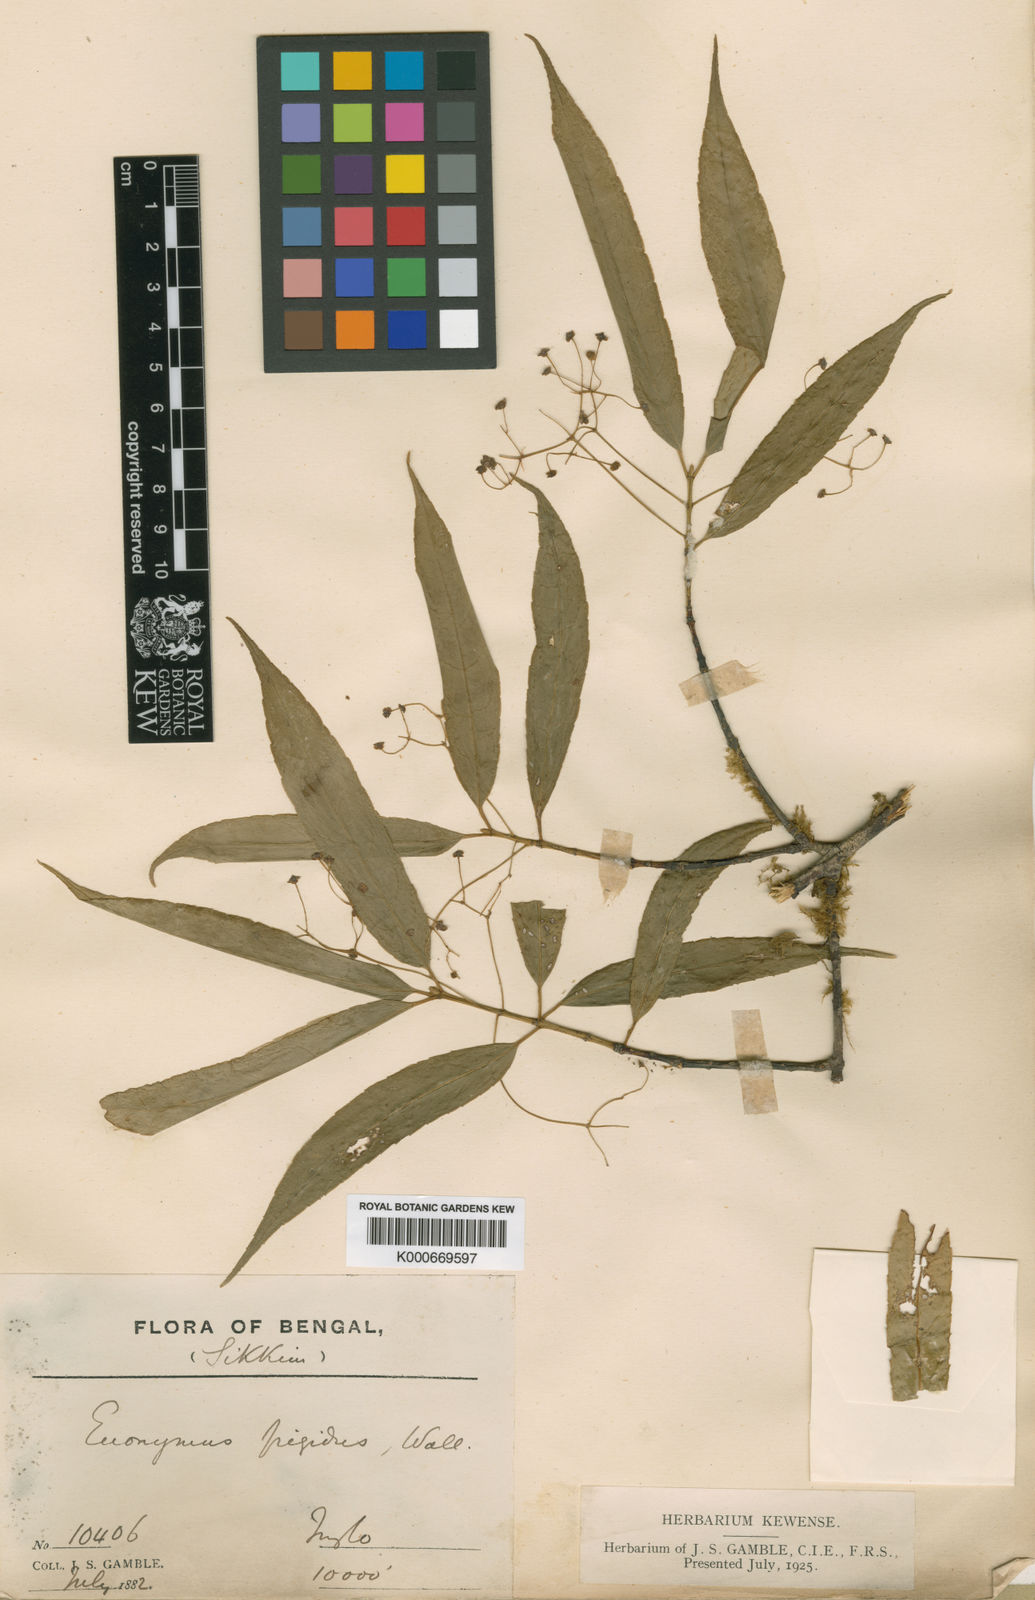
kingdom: Plantae
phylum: Tracheophyta
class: Magnoliopsida
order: Celastrales
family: Celastraceae
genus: Euonymus
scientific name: Euonymus frigidus
